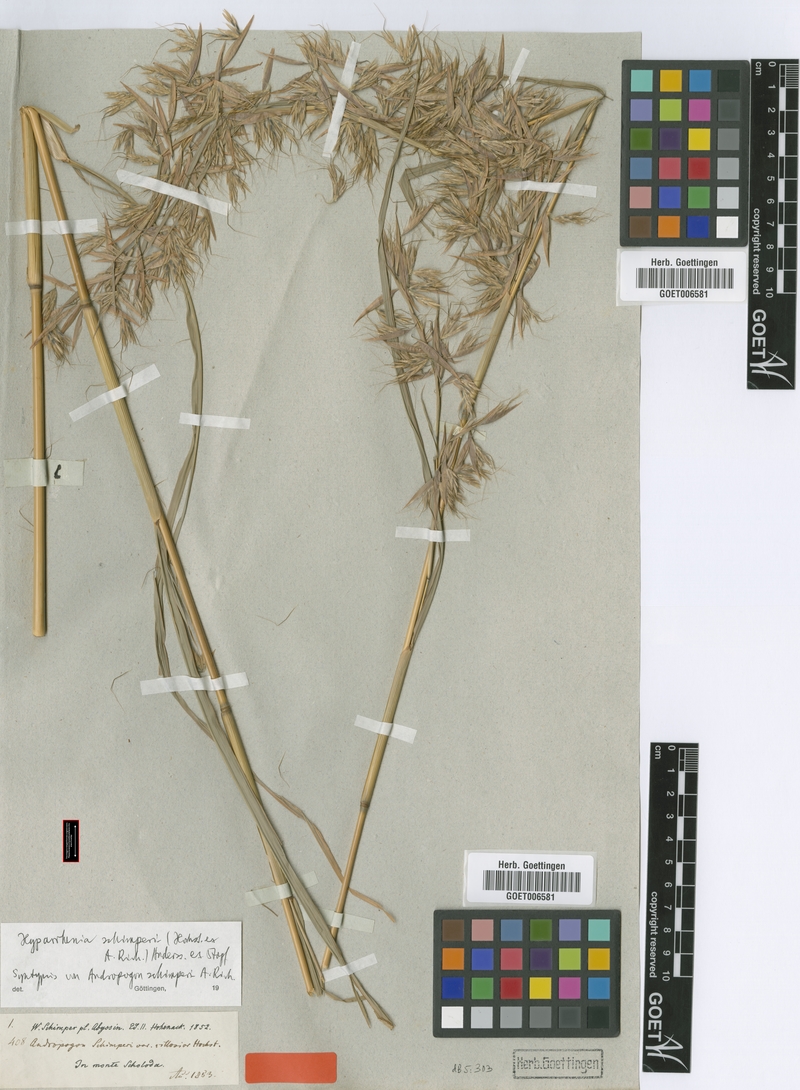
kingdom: Plantae
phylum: Tracheophyta
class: Liliopsida
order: Poales
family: Poaceae
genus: Hyparrhenia
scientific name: Hyparrhenia schimperi
